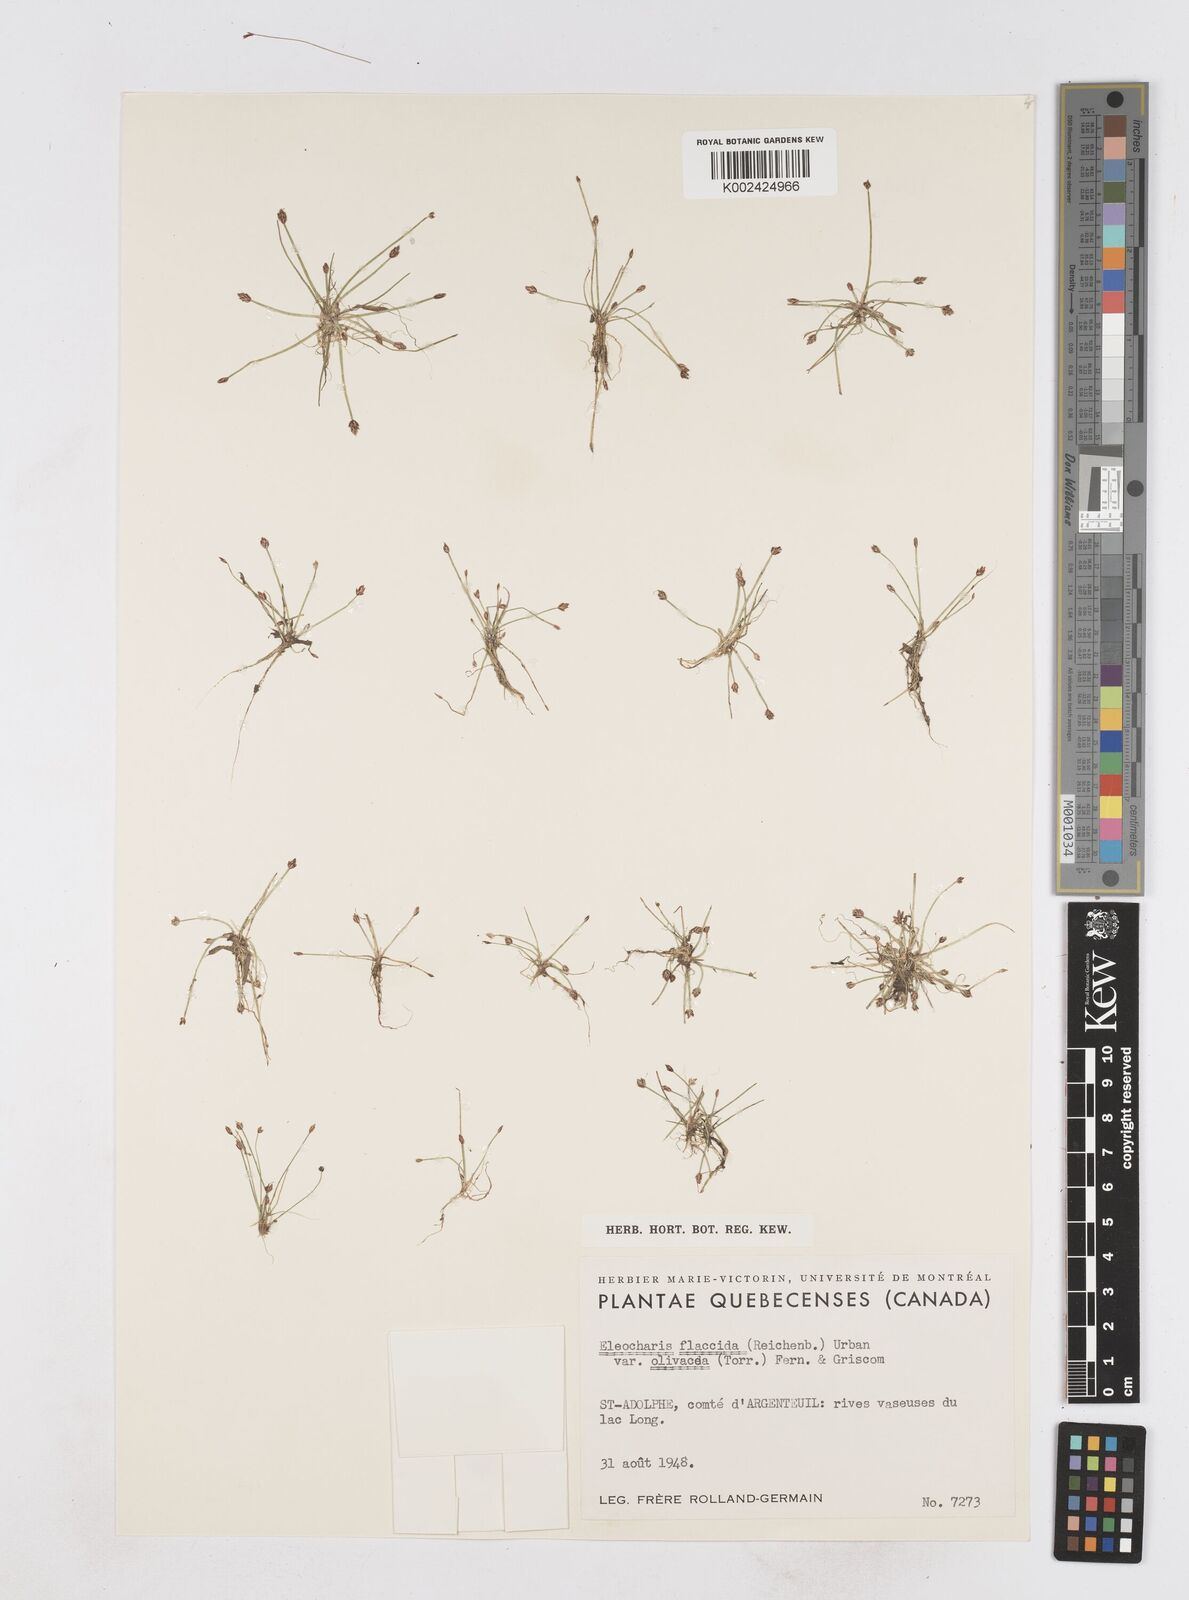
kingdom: Plantae
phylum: Tracheophyta
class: Liliopsida
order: Poales
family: Cyperaceae
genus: Eleocharis
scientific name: Eleocharis flavescens
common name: Yellow spikerush
